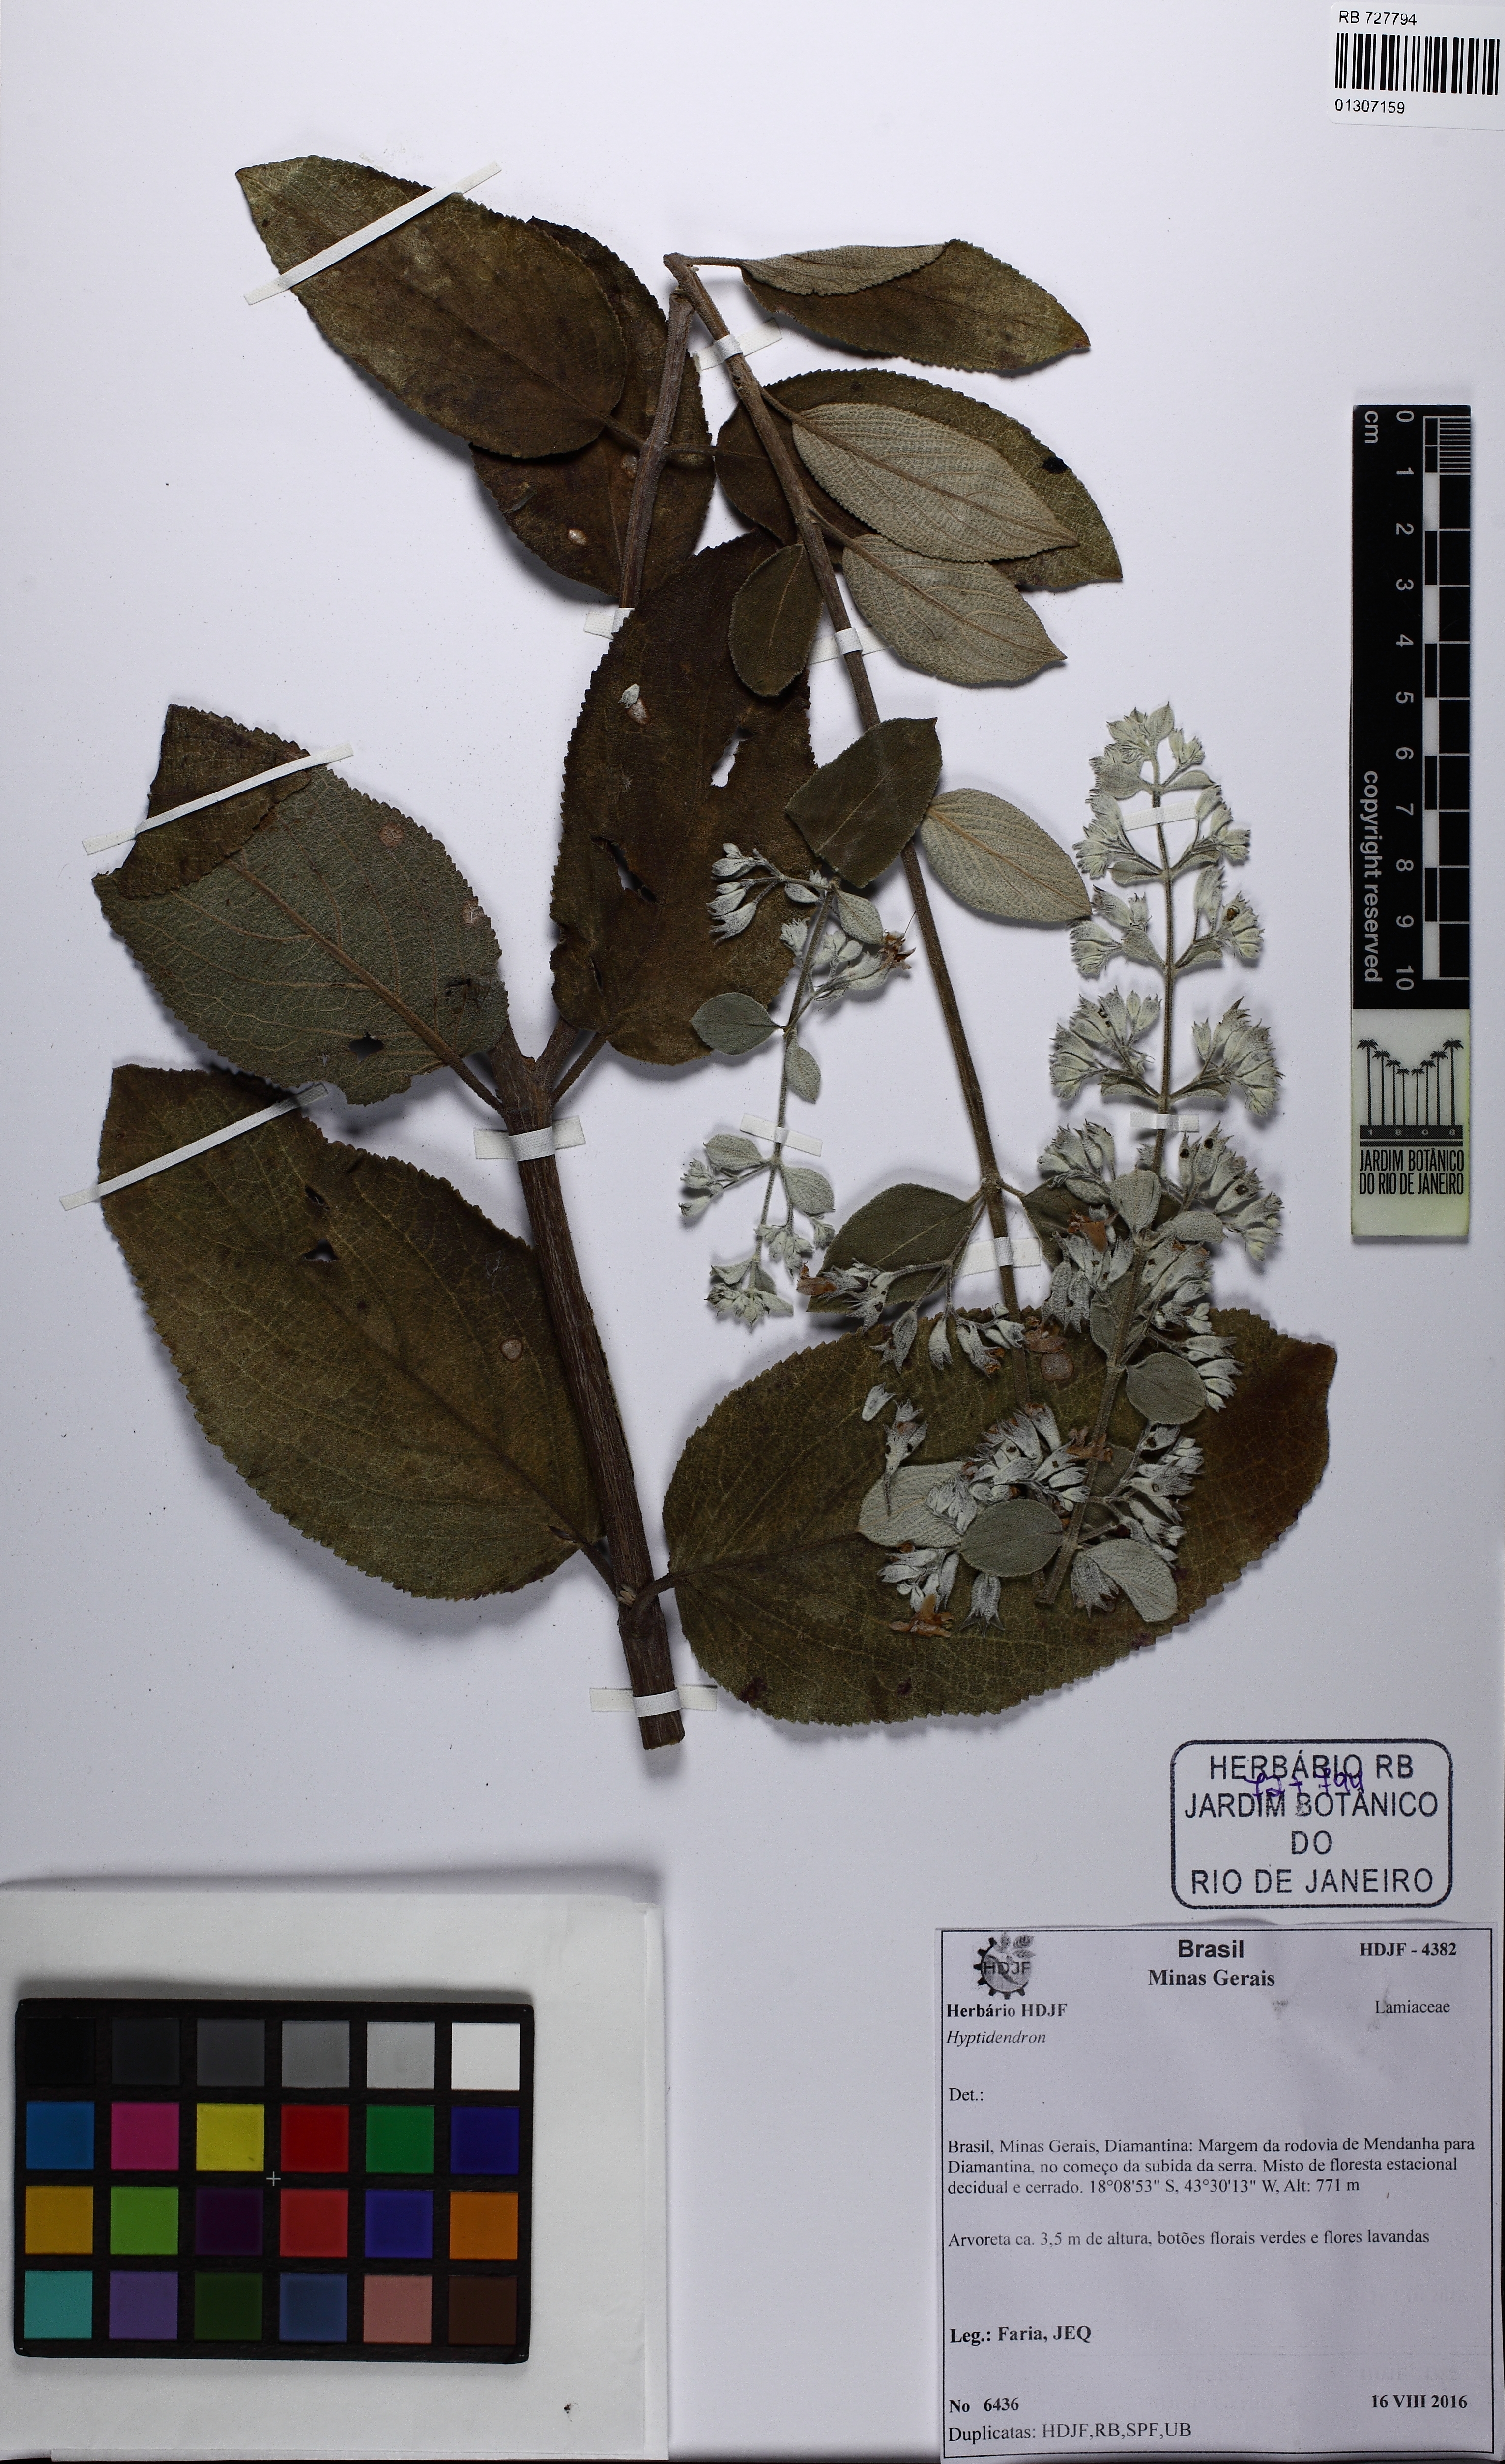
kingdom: Plantae
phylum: Tracheophyta
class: Magnoliopsida
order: Lamiales
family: Lamiaceae
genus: Hyptidendron
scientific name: Hyptidendron canum
